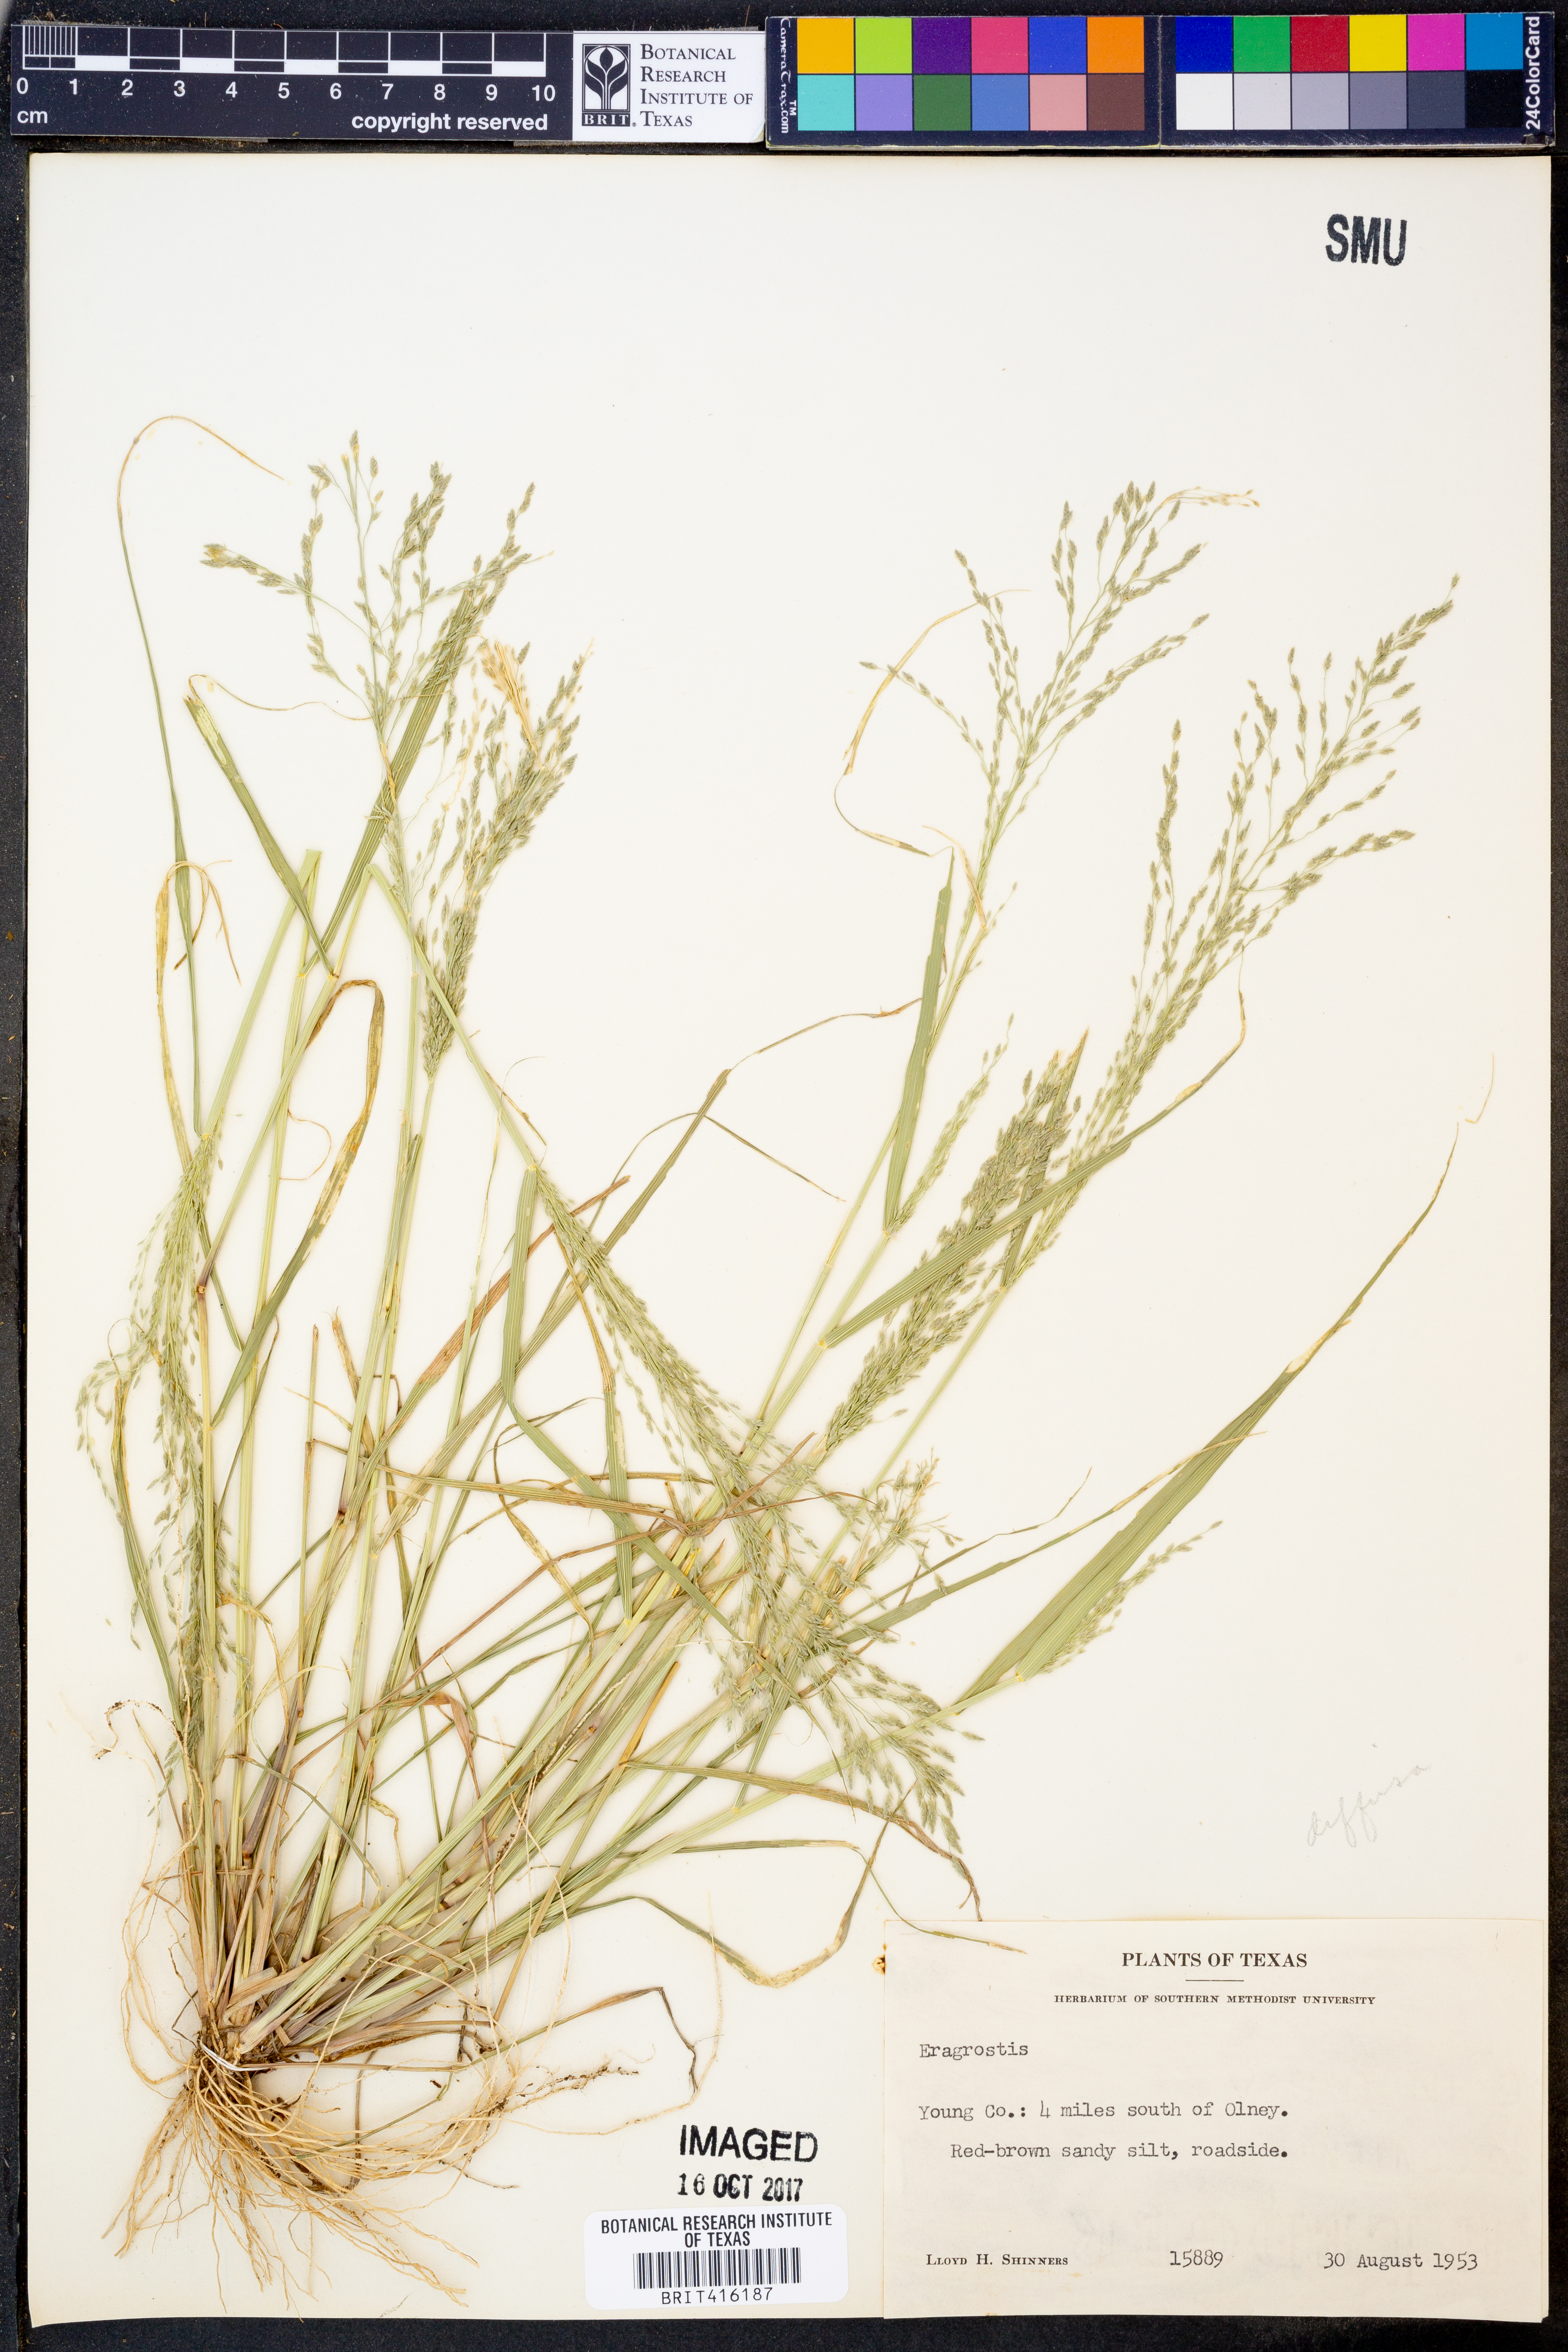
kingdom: Plantae
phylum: Tracheophyta
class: Liliopsida
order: Poales
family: Poaceae
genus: Eragrostis
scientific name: Eragrostis
